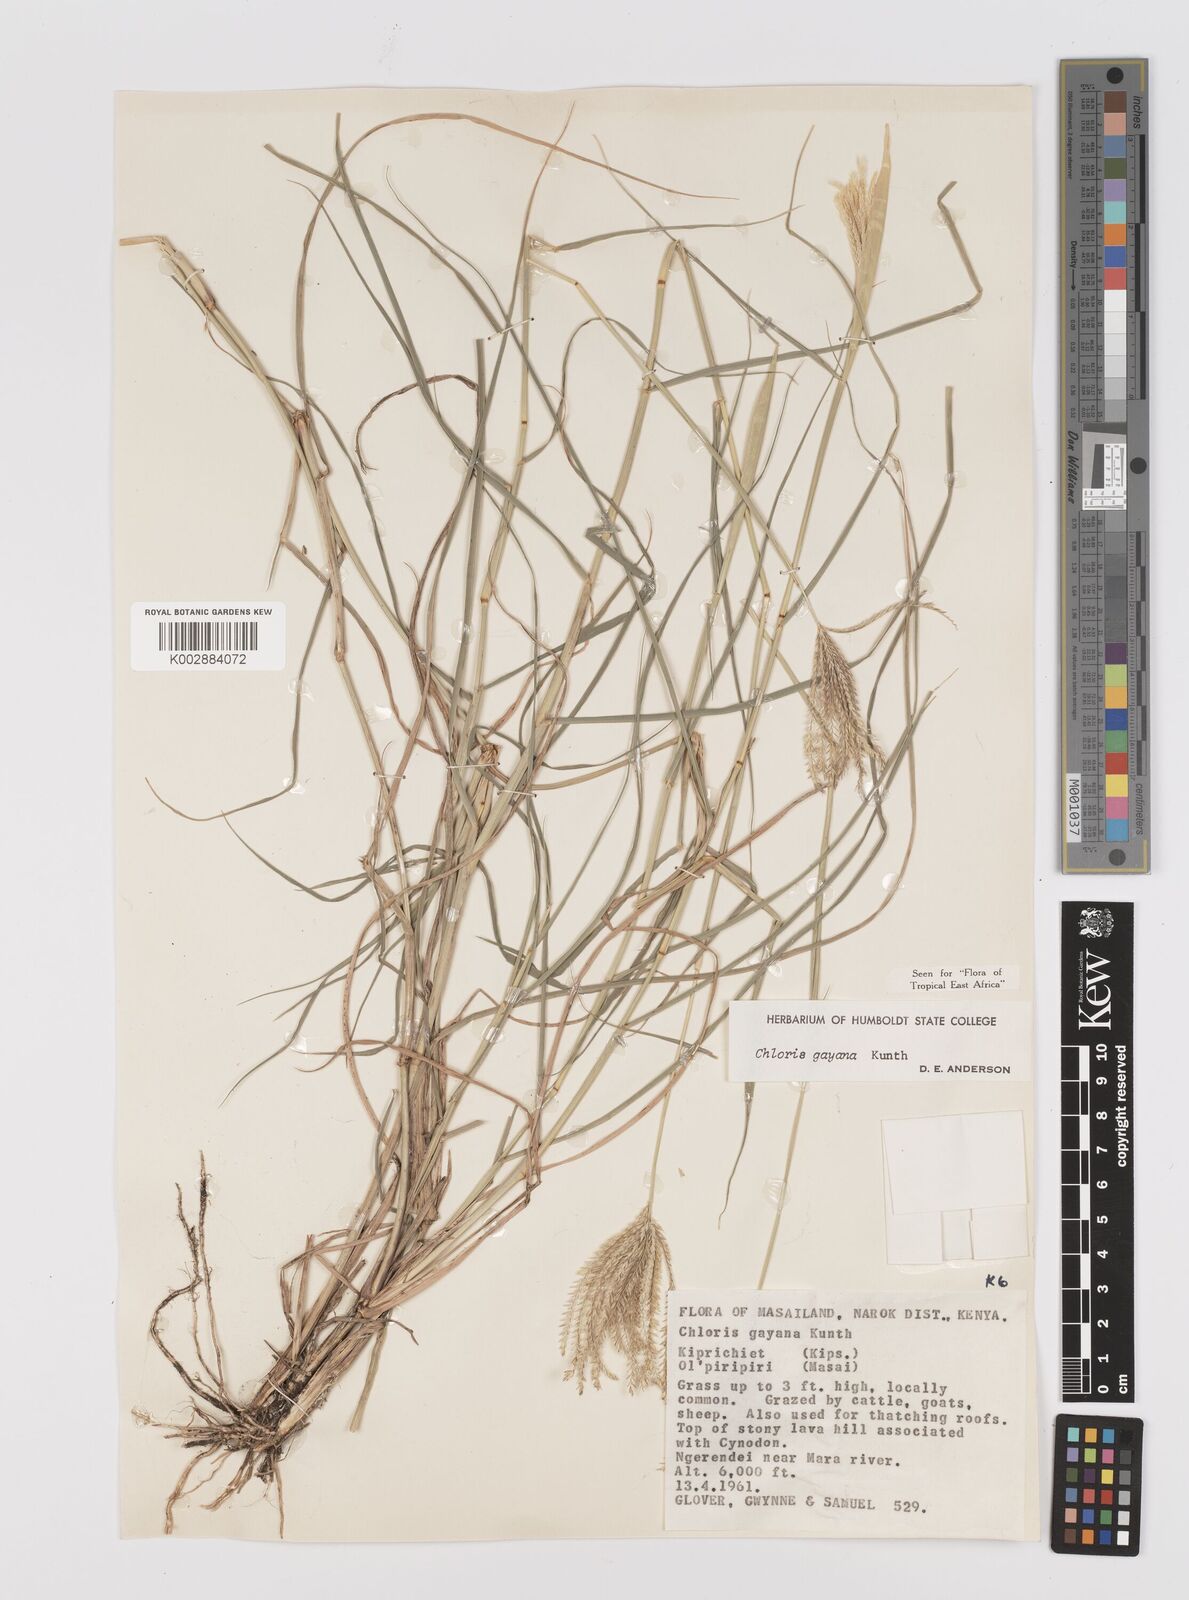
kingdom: Plantae
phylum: Tracheophyta
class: Liliopsida
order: Poales
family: Poaceae
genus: Chloris
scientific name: Chloris gayana
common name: Rhodes grass
